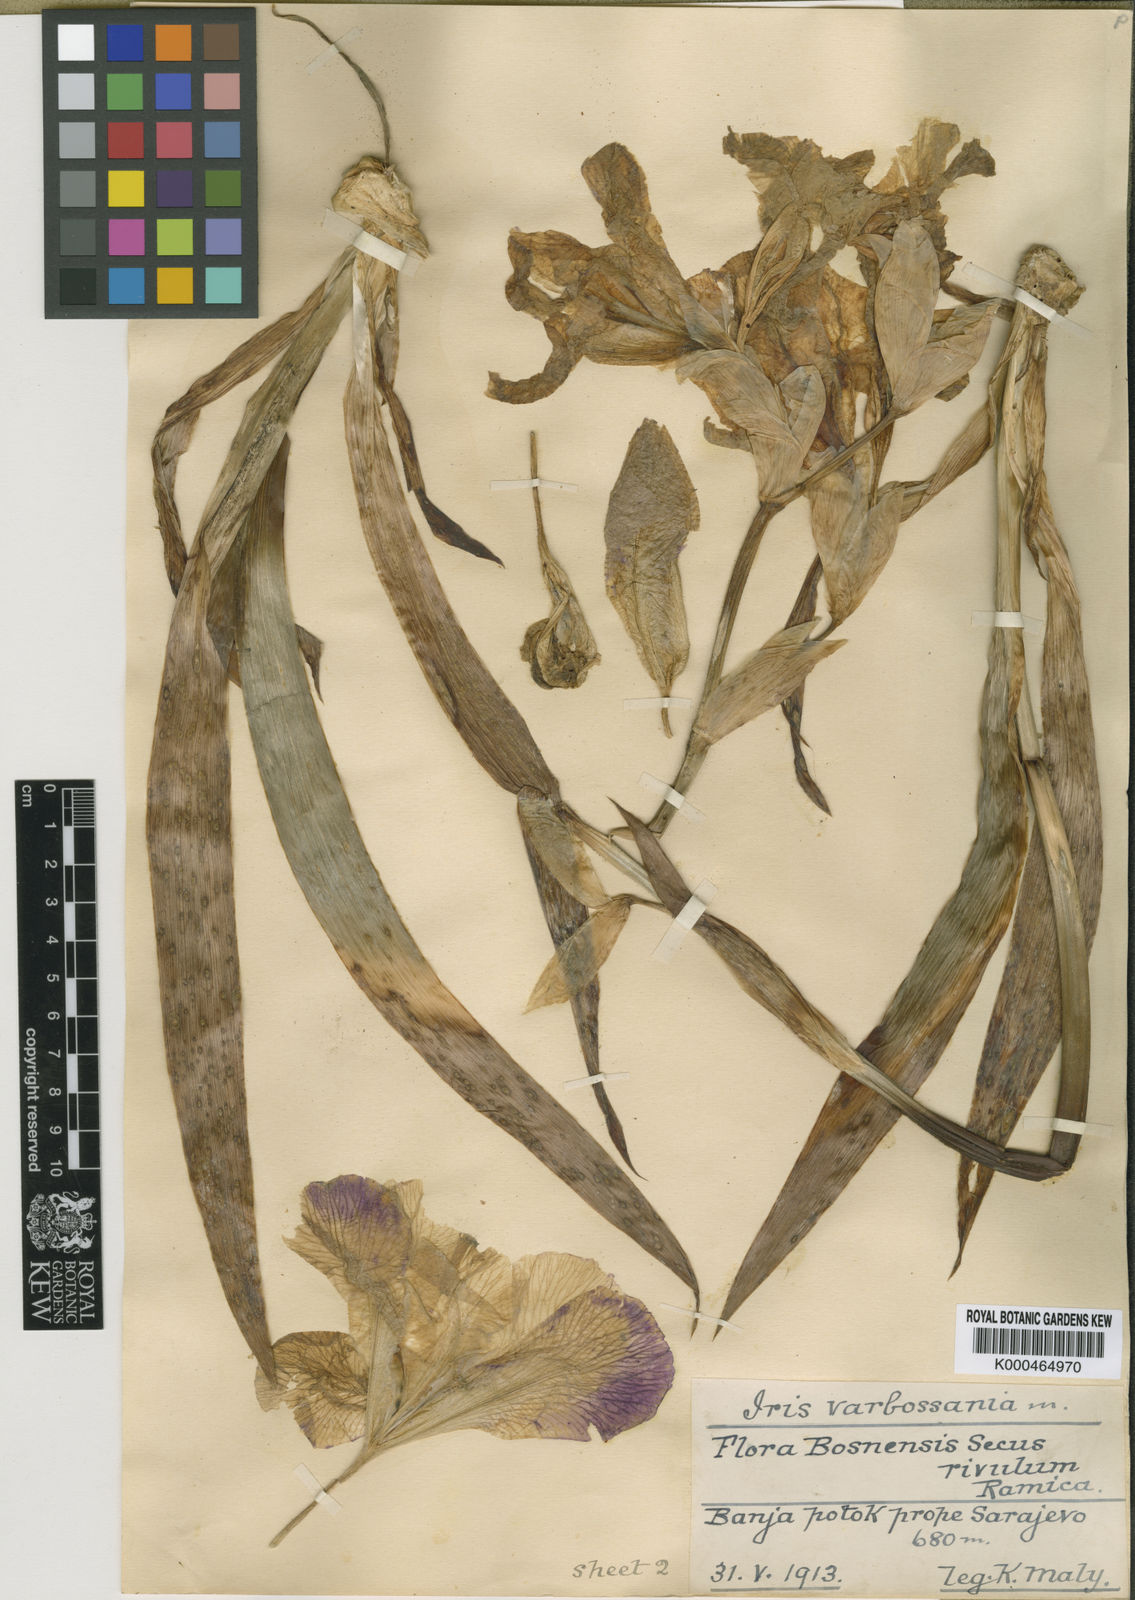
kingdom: Plantae
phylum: Tracheophyta
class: Liliopsida
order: Asparagales
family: Iridaceae
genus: Iris
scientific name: Iris
